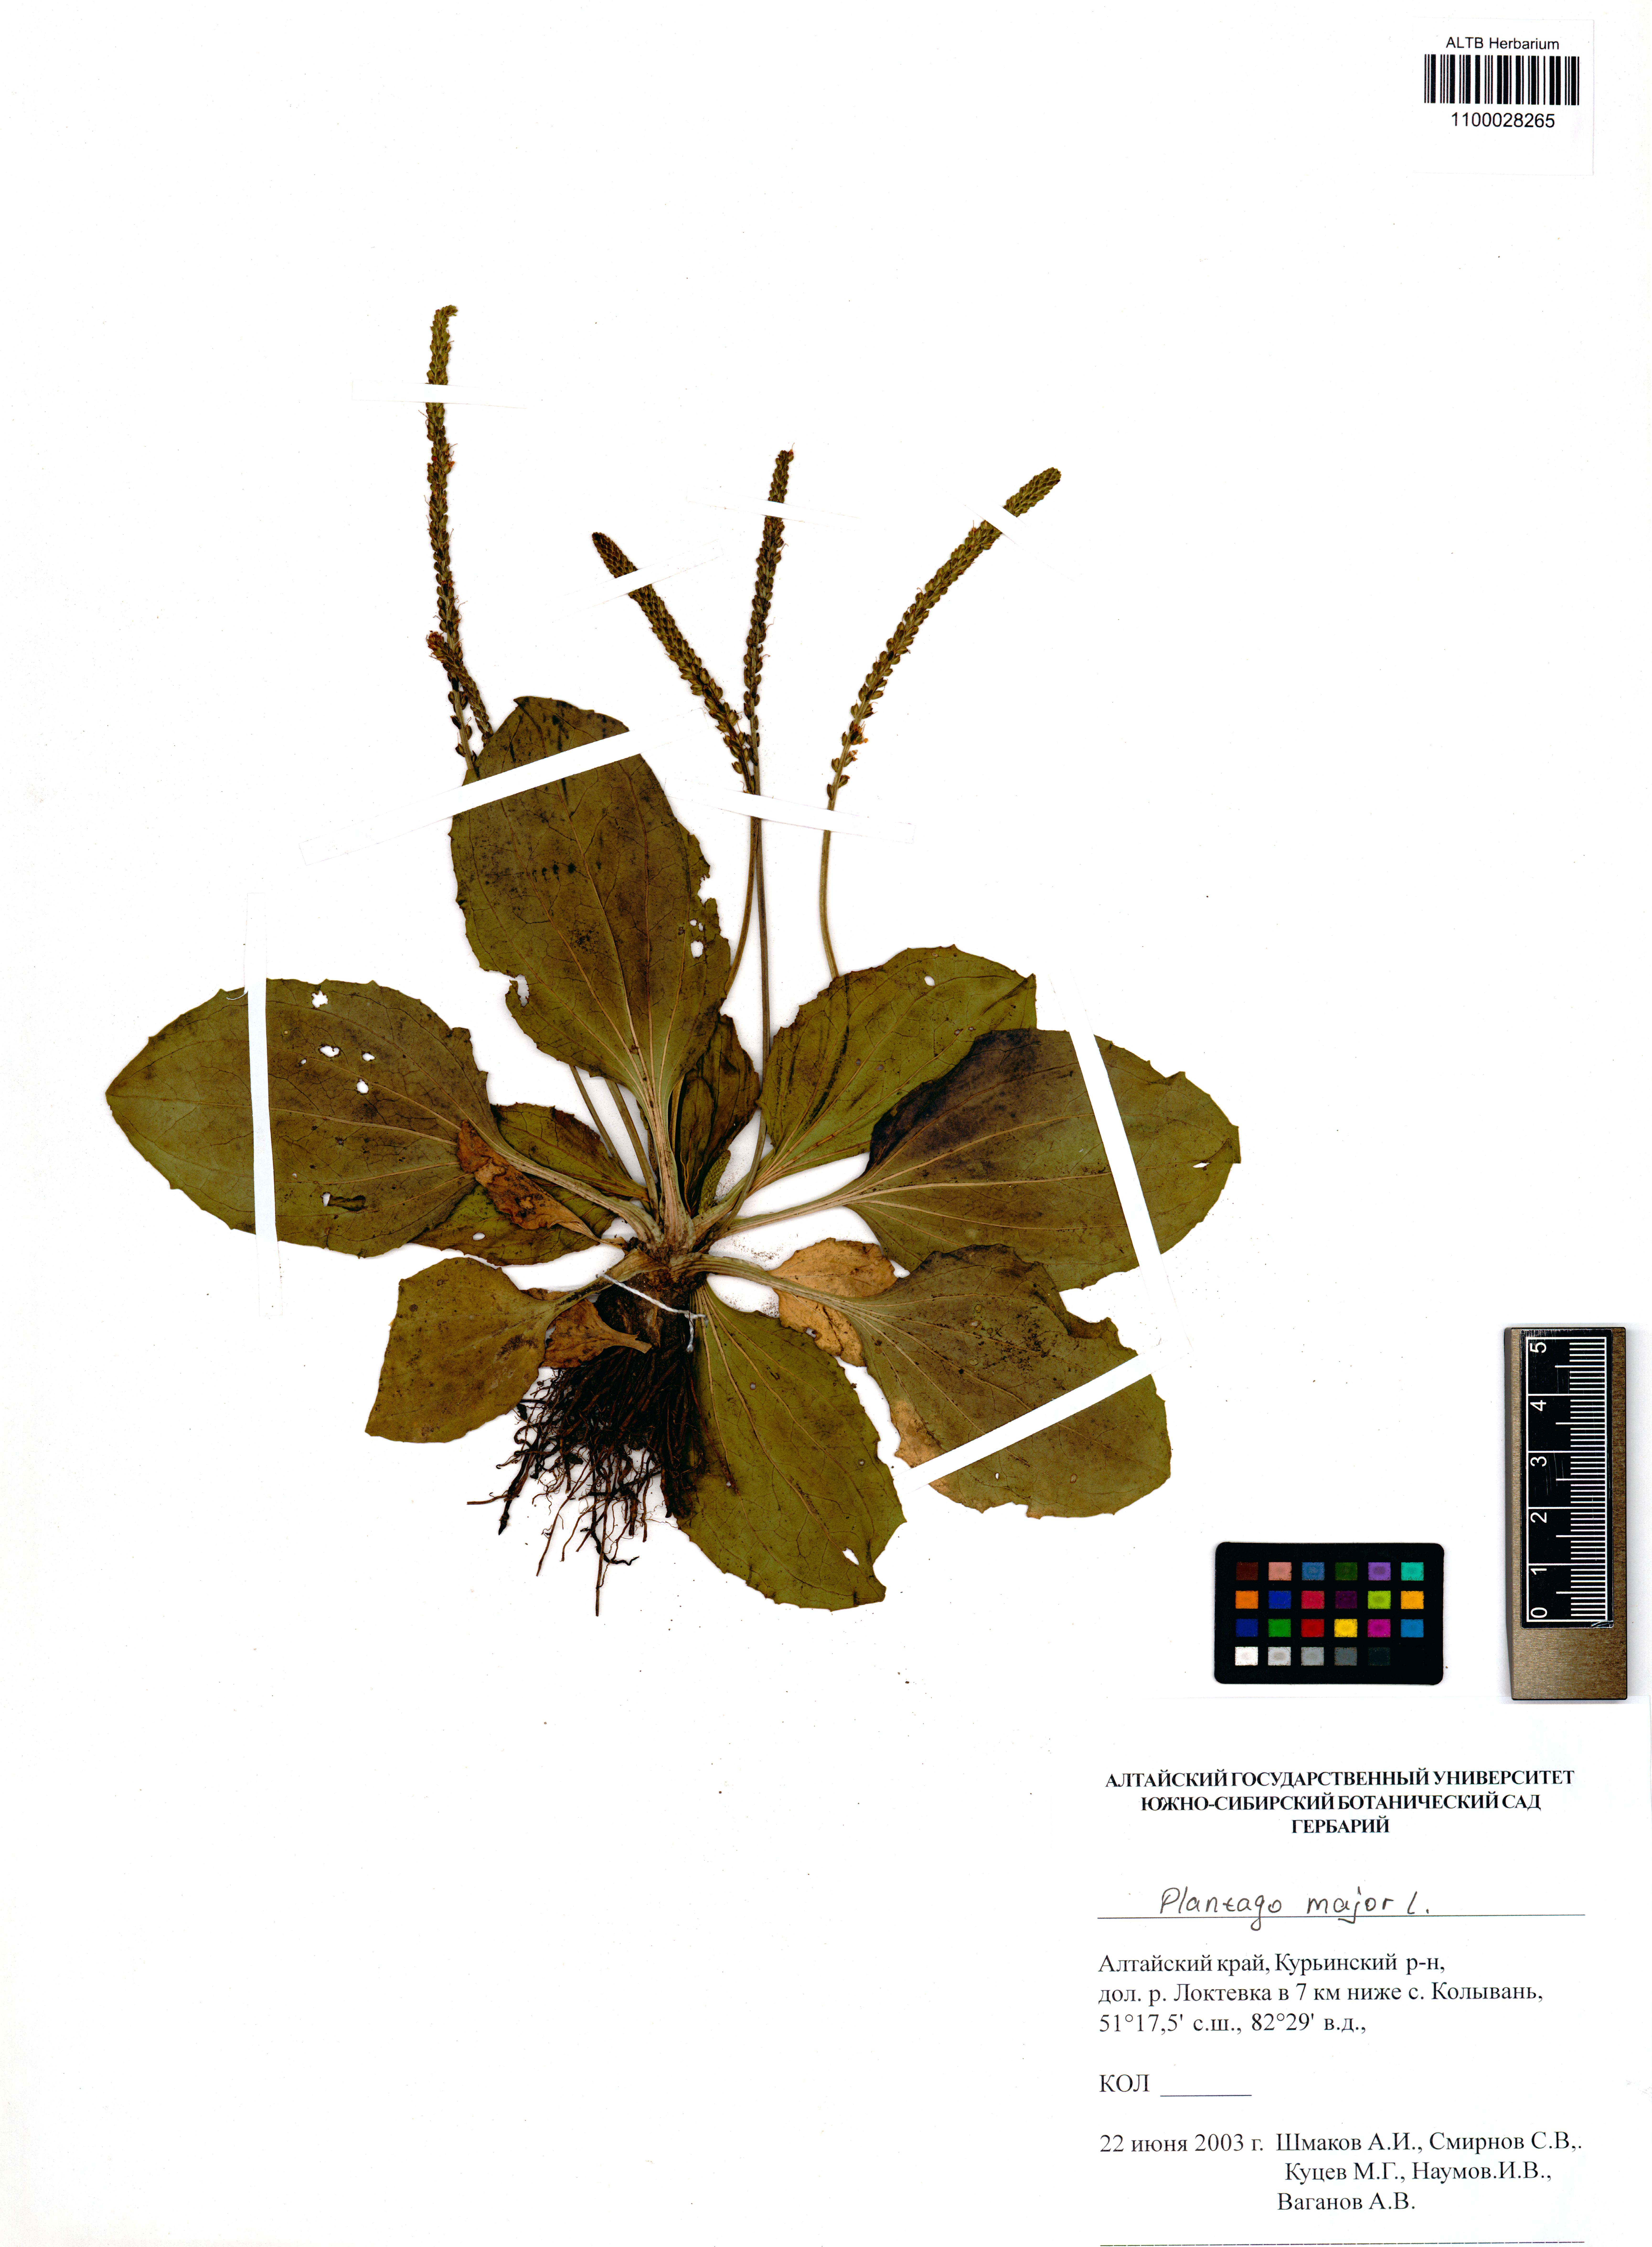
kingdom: Plantae
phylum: Tracheophyta
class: Magnoliopsida
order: Lamiales
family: Plantaginaceae
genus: Plantago
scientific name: Plantago major
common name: Common plantain
